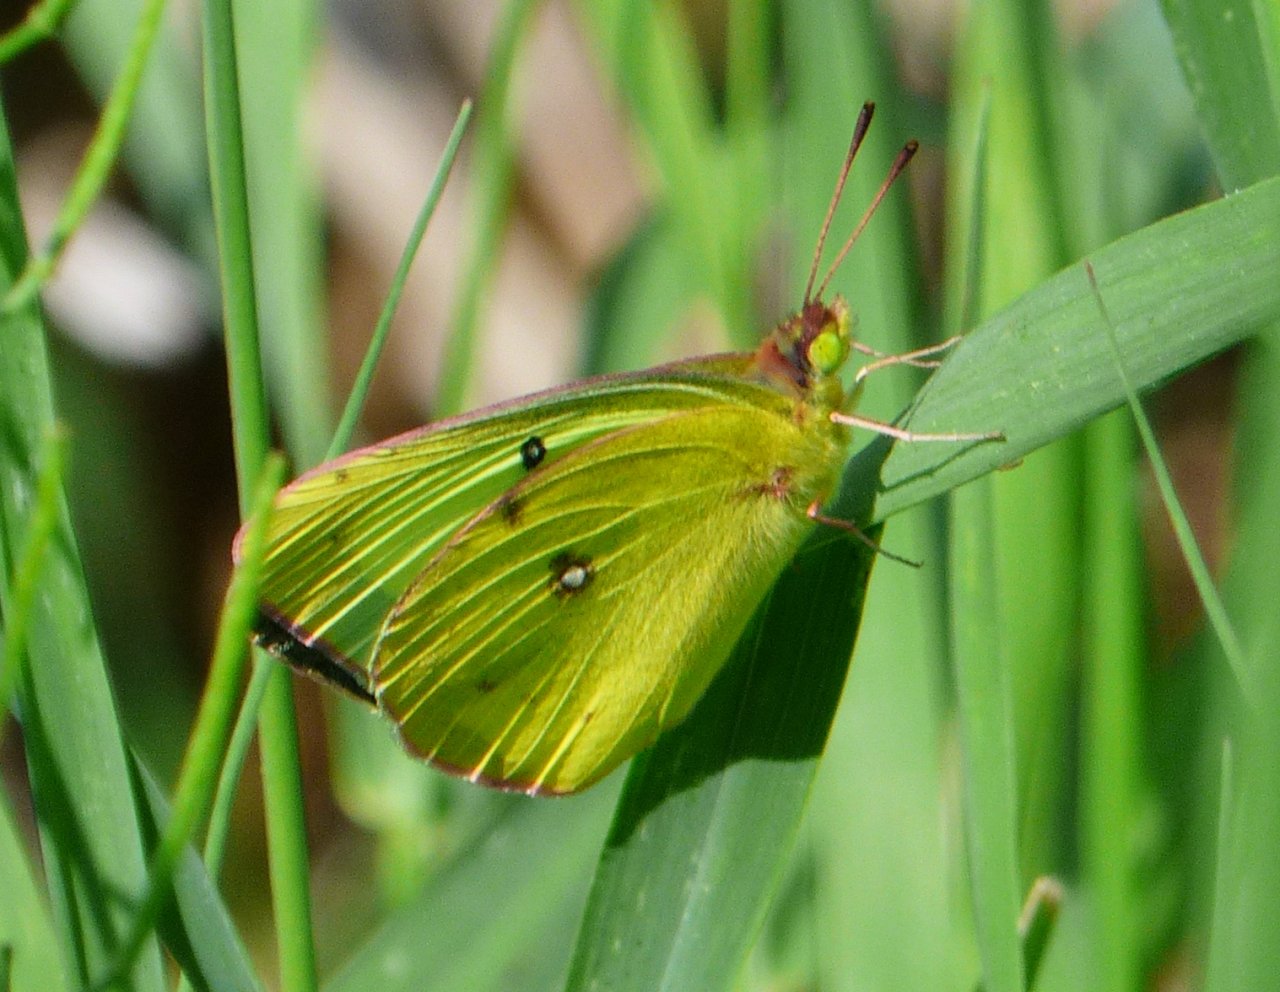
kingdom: Animalia
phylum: Arthropoda
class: Insecta
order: Lepidoptera
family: Pieridae
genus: Colias
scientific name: Colias philodice
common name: Clouded Sulphur
